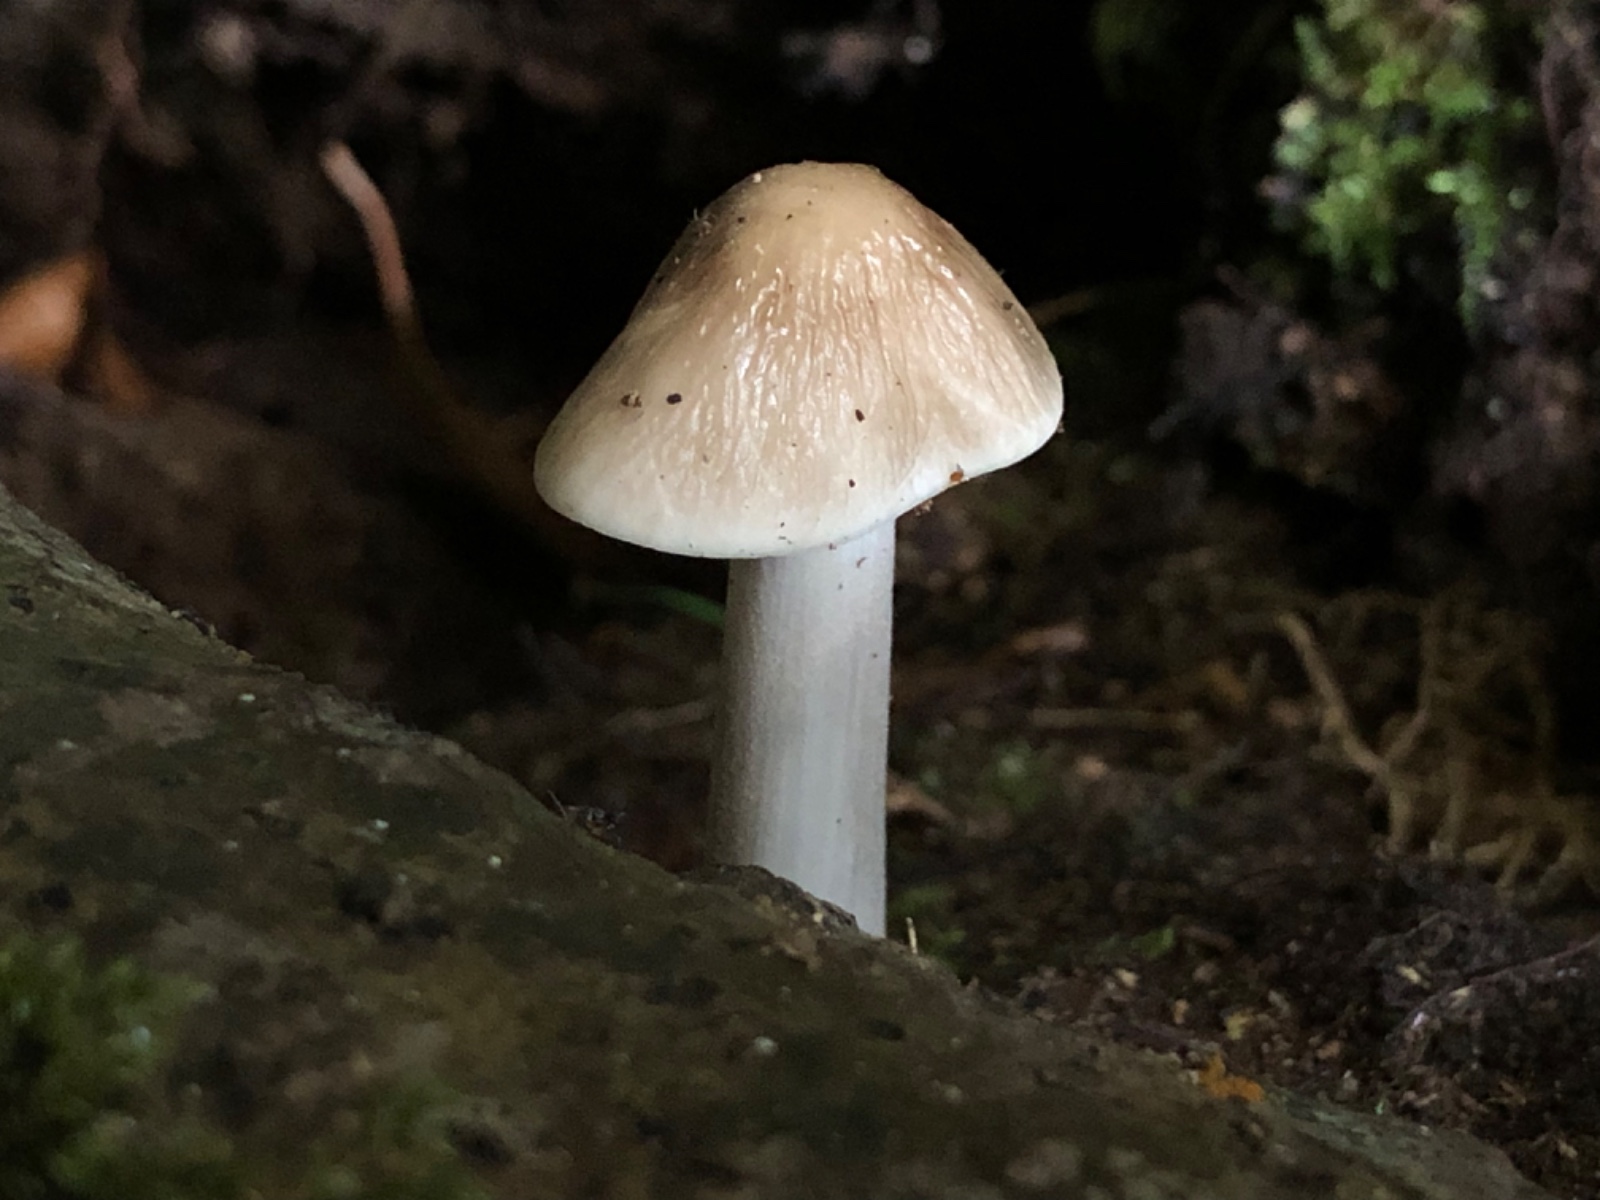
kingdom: Fungi
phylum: Basidiomycota
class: Agaricomycetes
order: Agaricales
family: Physalacriaceae
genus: Hymenopellis
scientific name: Hymenopellis radicata
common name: almindelig pælerodshat
